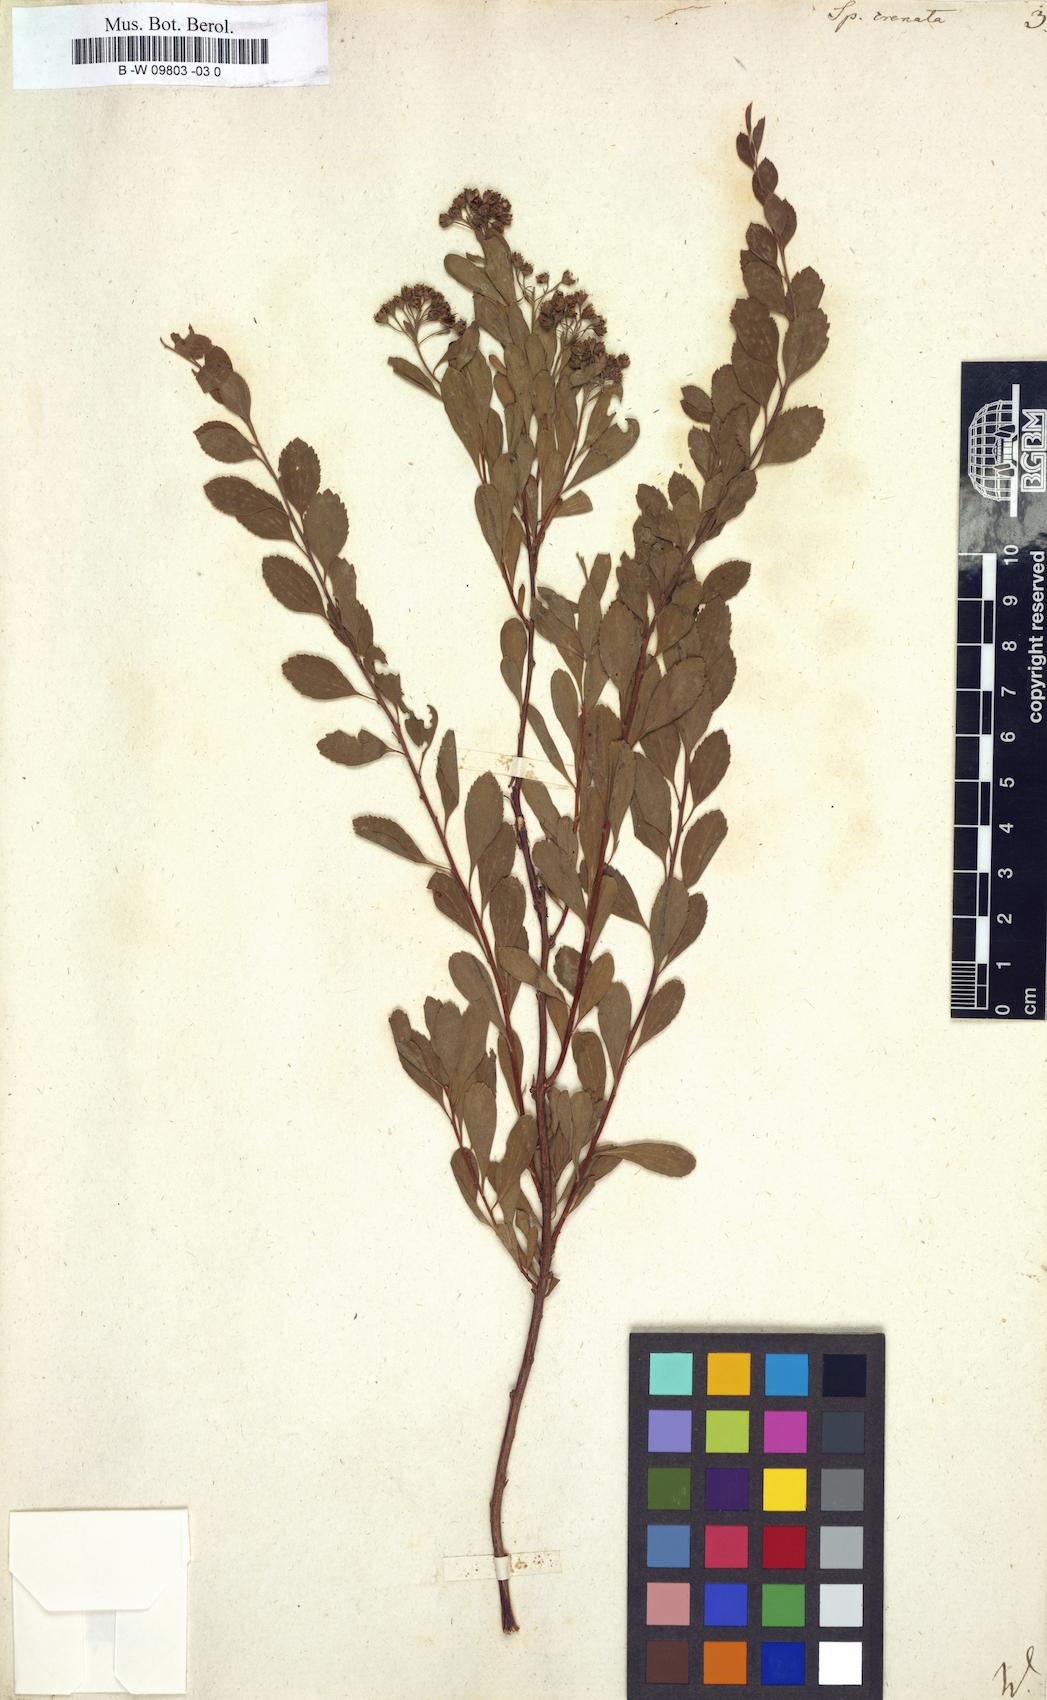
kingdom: Plantae
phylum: Tracheophyta
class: Magnoliopsida
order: Rosales
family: Rosaceae
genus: Spiraea
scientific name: Spiraea crenata
